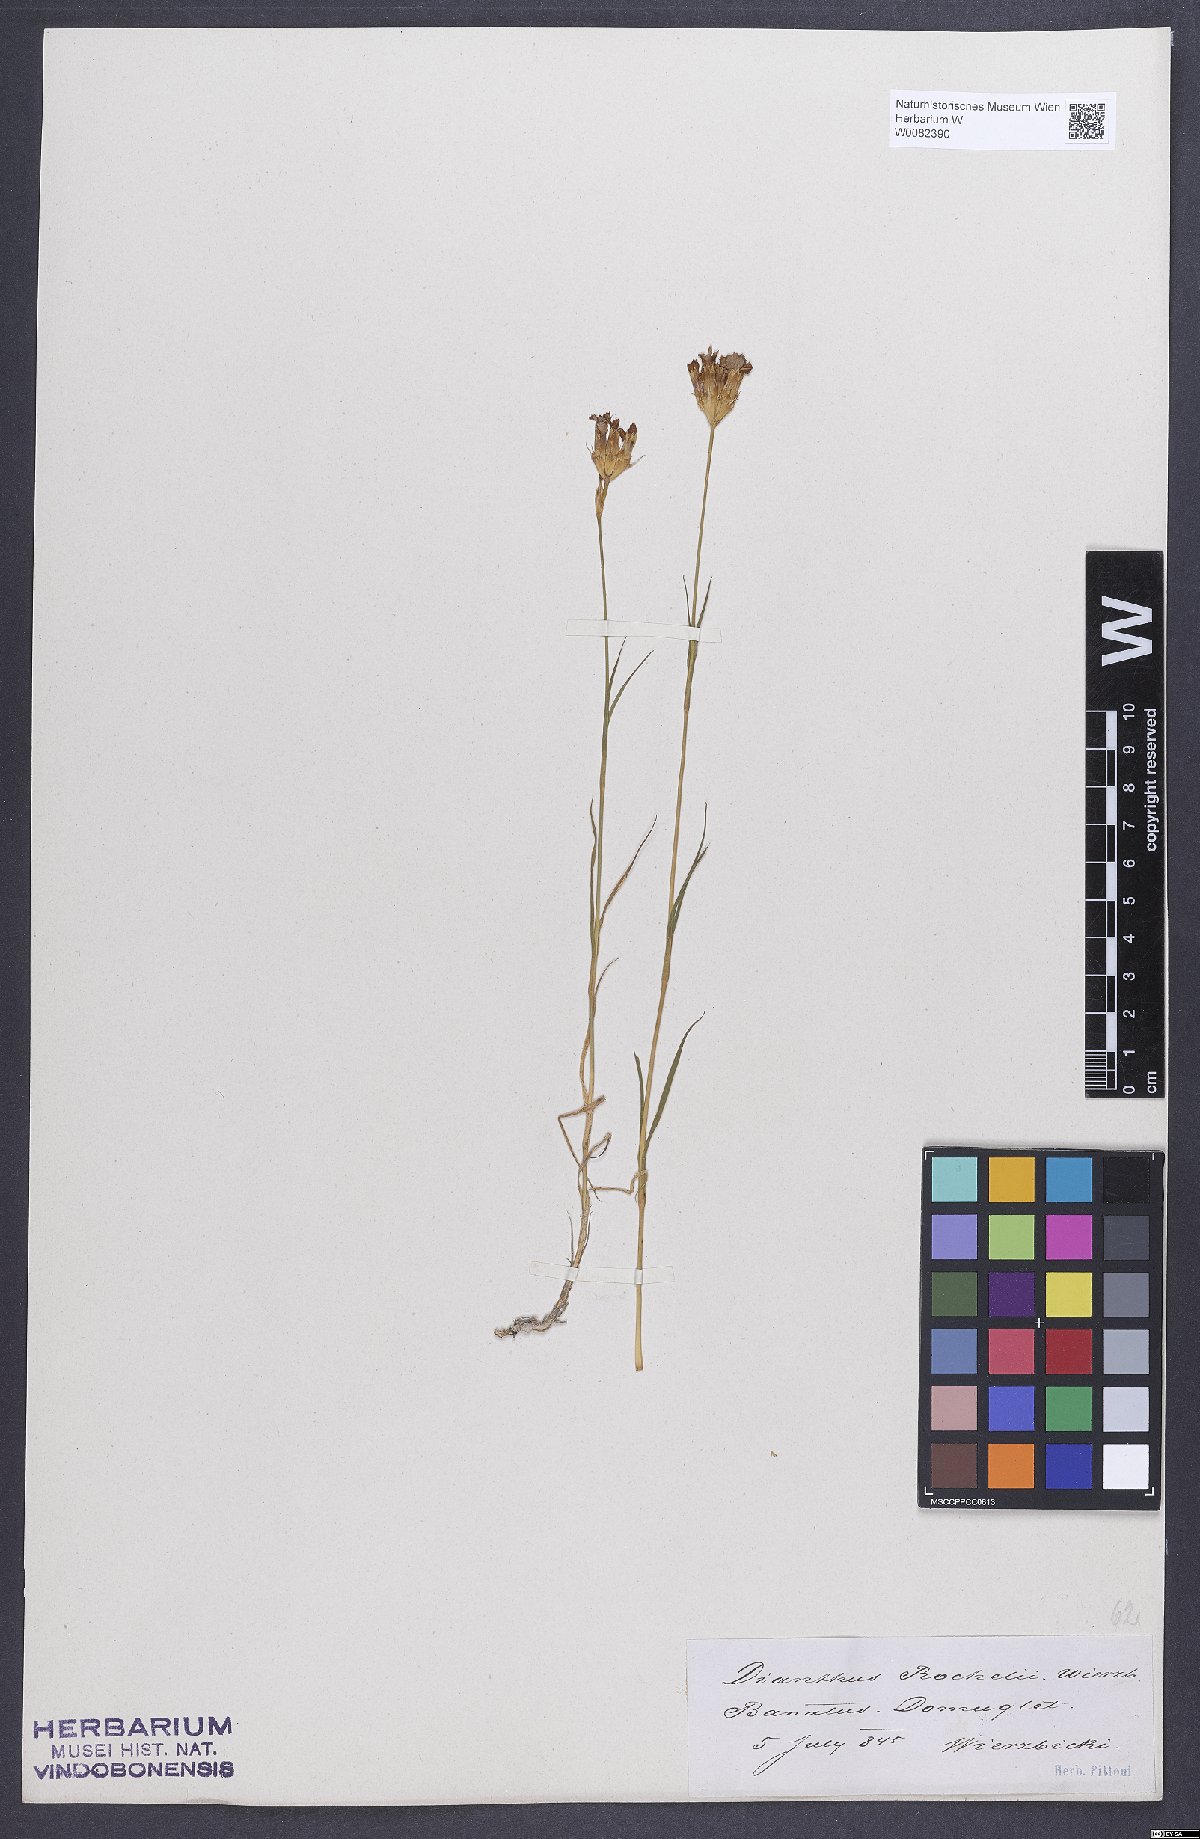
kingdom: Plantae
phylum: Tracheophyta
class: Magnoliopsida
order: Caryophyllales
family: Caryophyllaceae
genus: Dianthus
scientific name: Dianthus carthusianorum
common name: Carthusian pink
